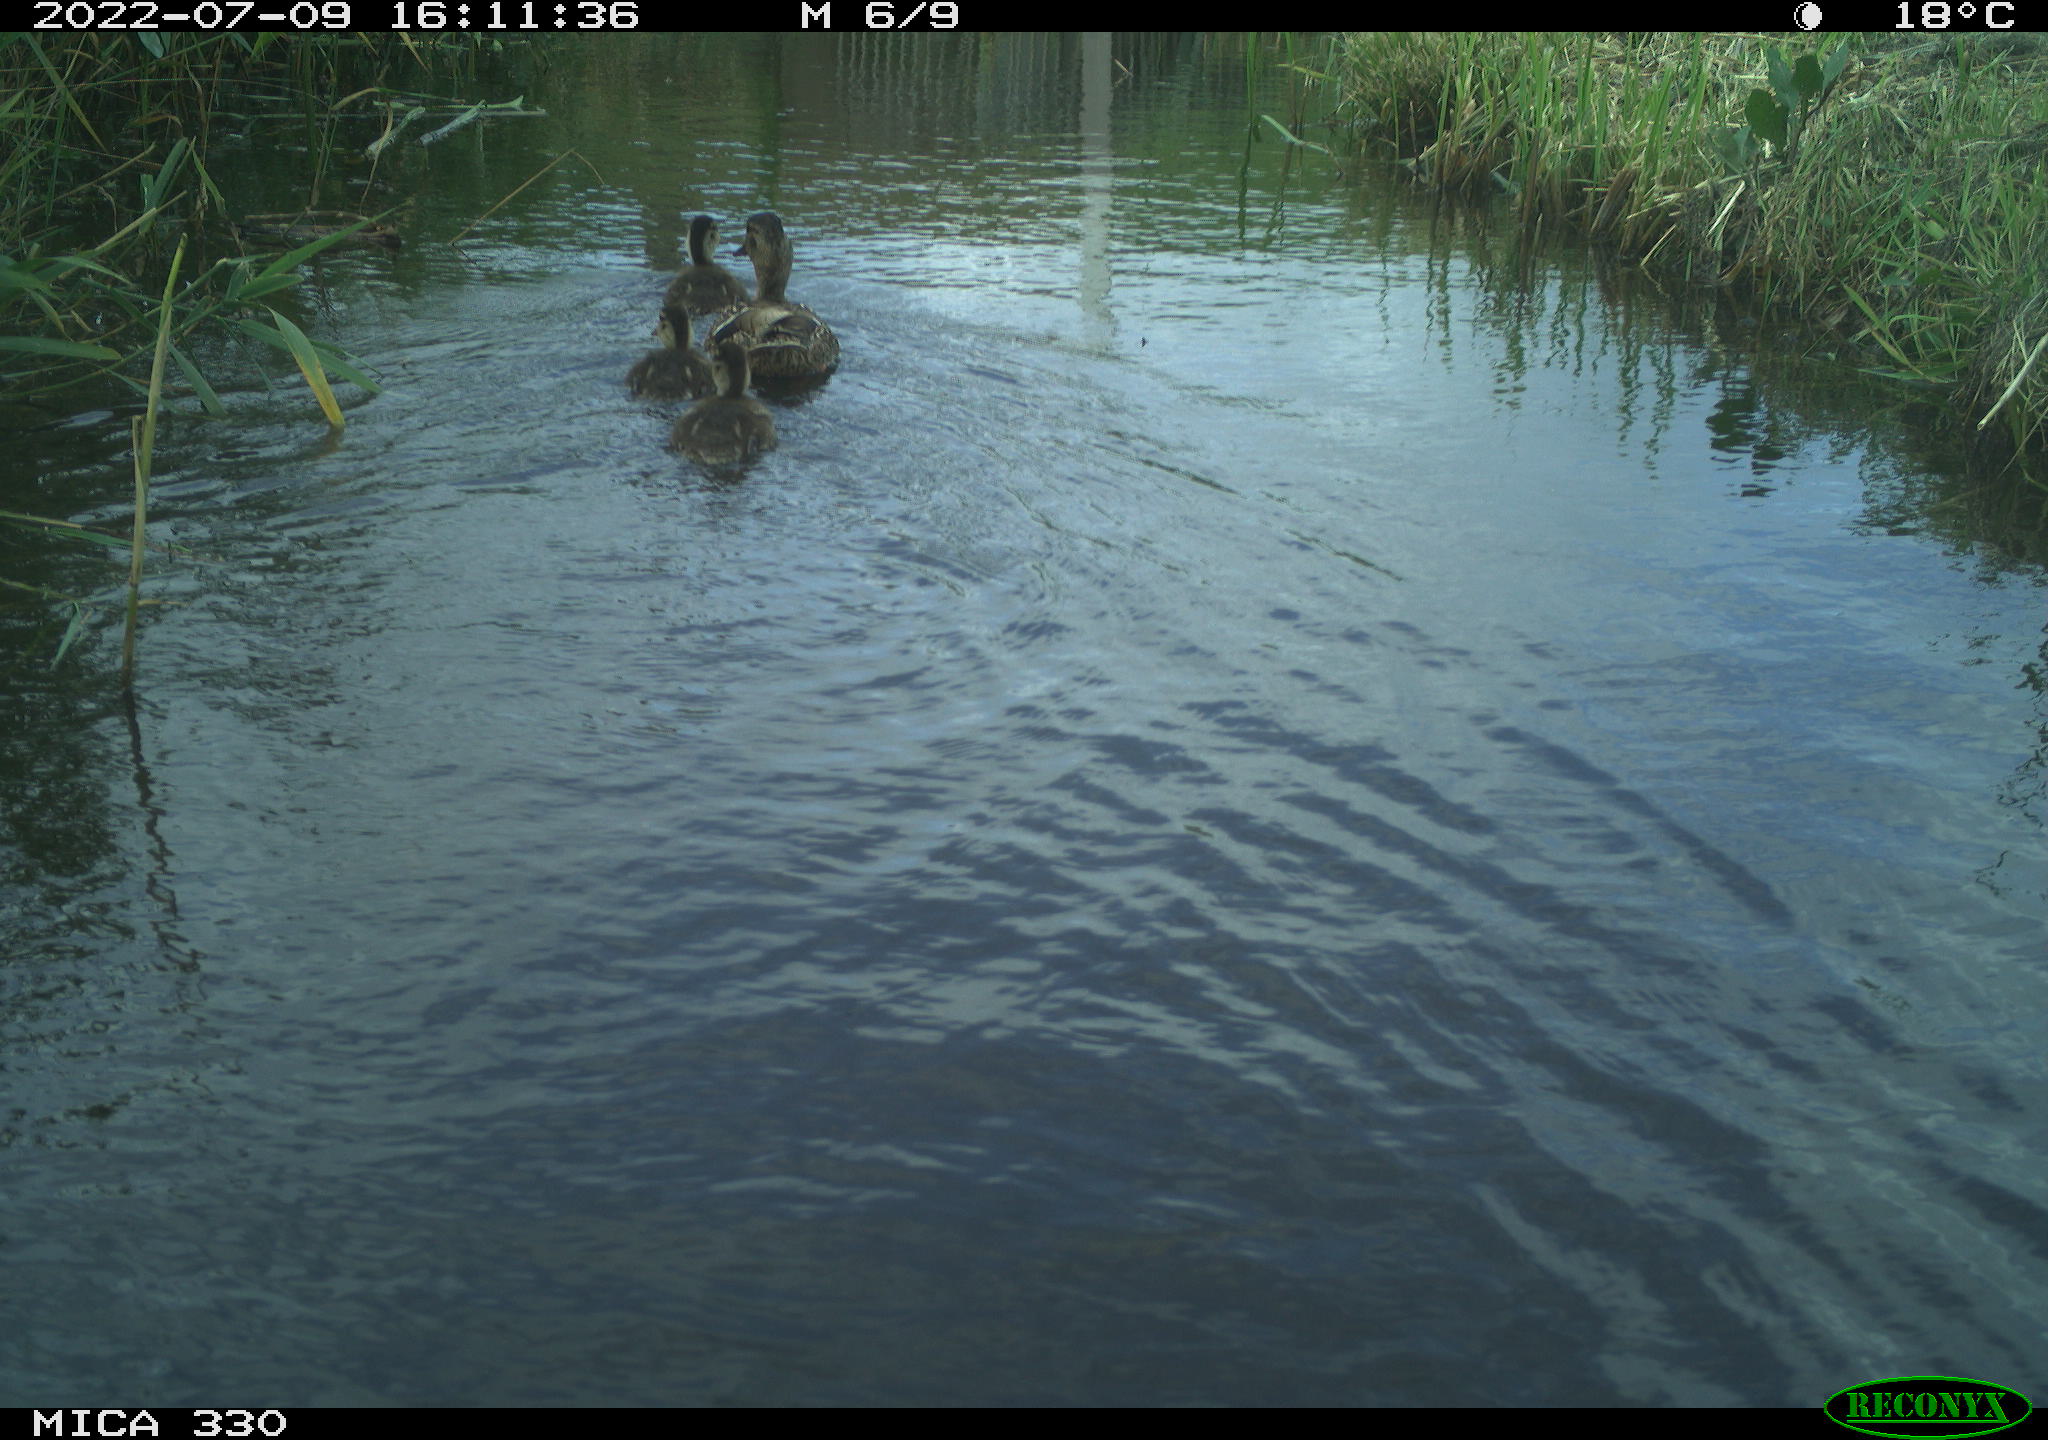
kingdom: Animalia
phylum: Chordata
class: Aves
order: Anseriformes
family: Anatidae
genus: Mareca
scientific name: Mareca strepera
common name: Gadwall
